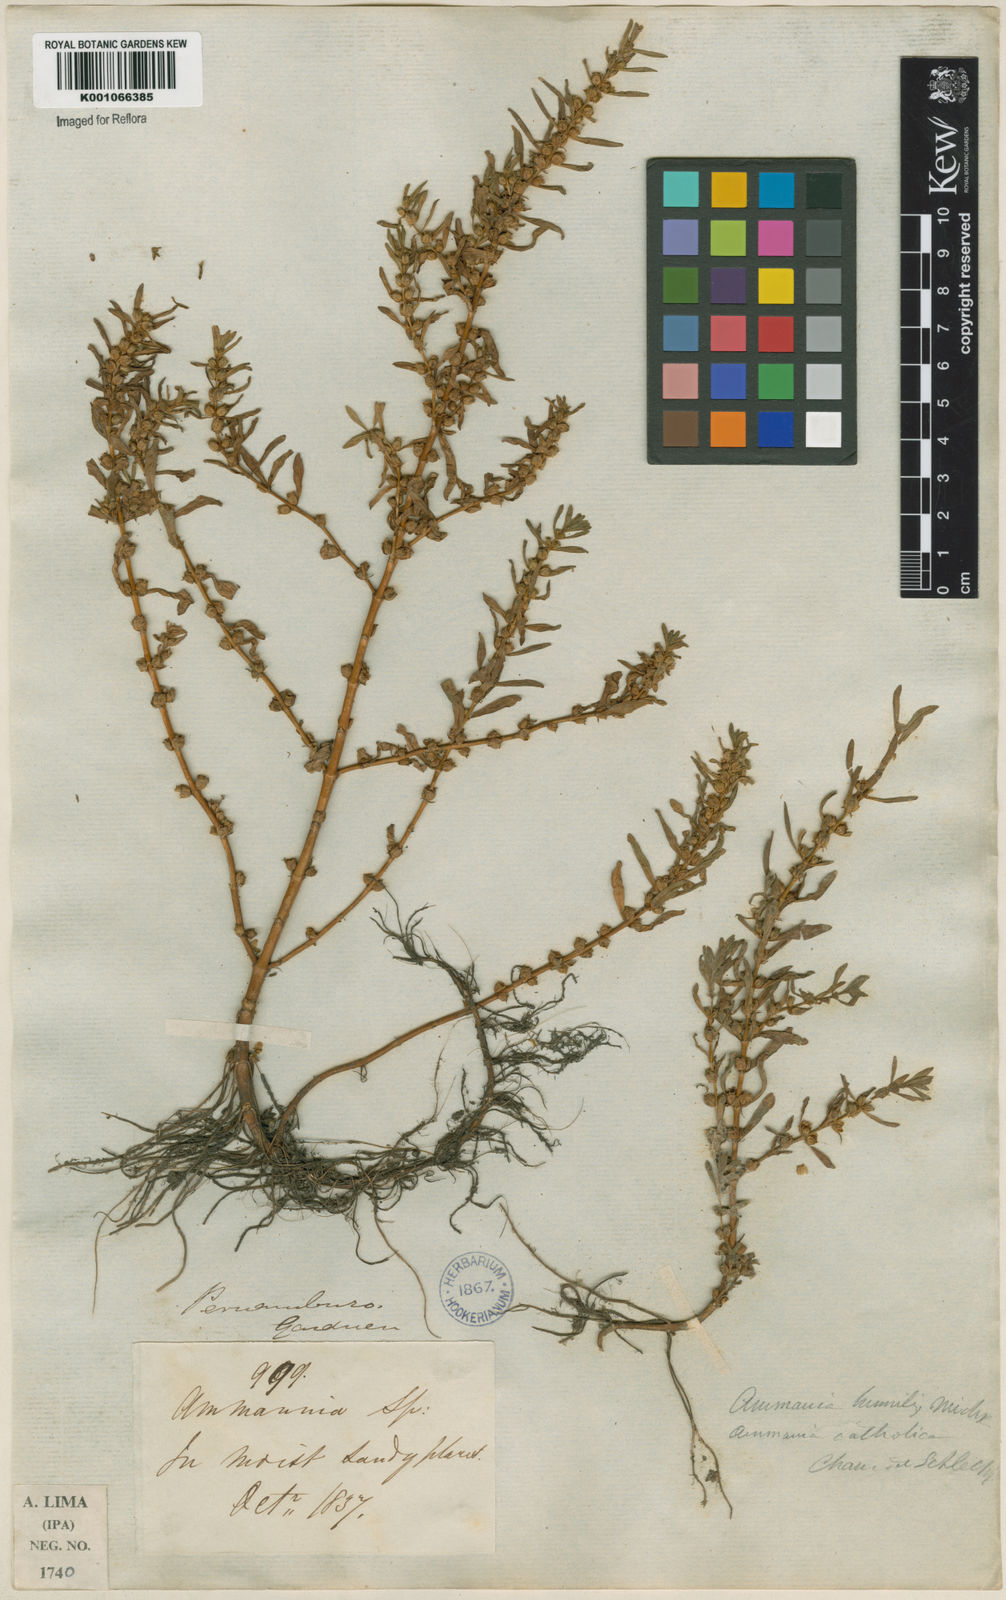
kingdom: Plantae
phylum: Tracheophyta
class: Magnoliopsida
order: Myrtales
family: Lythraceae
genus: Rotala
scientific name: Rotala ramosior
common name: Lowland rotala
